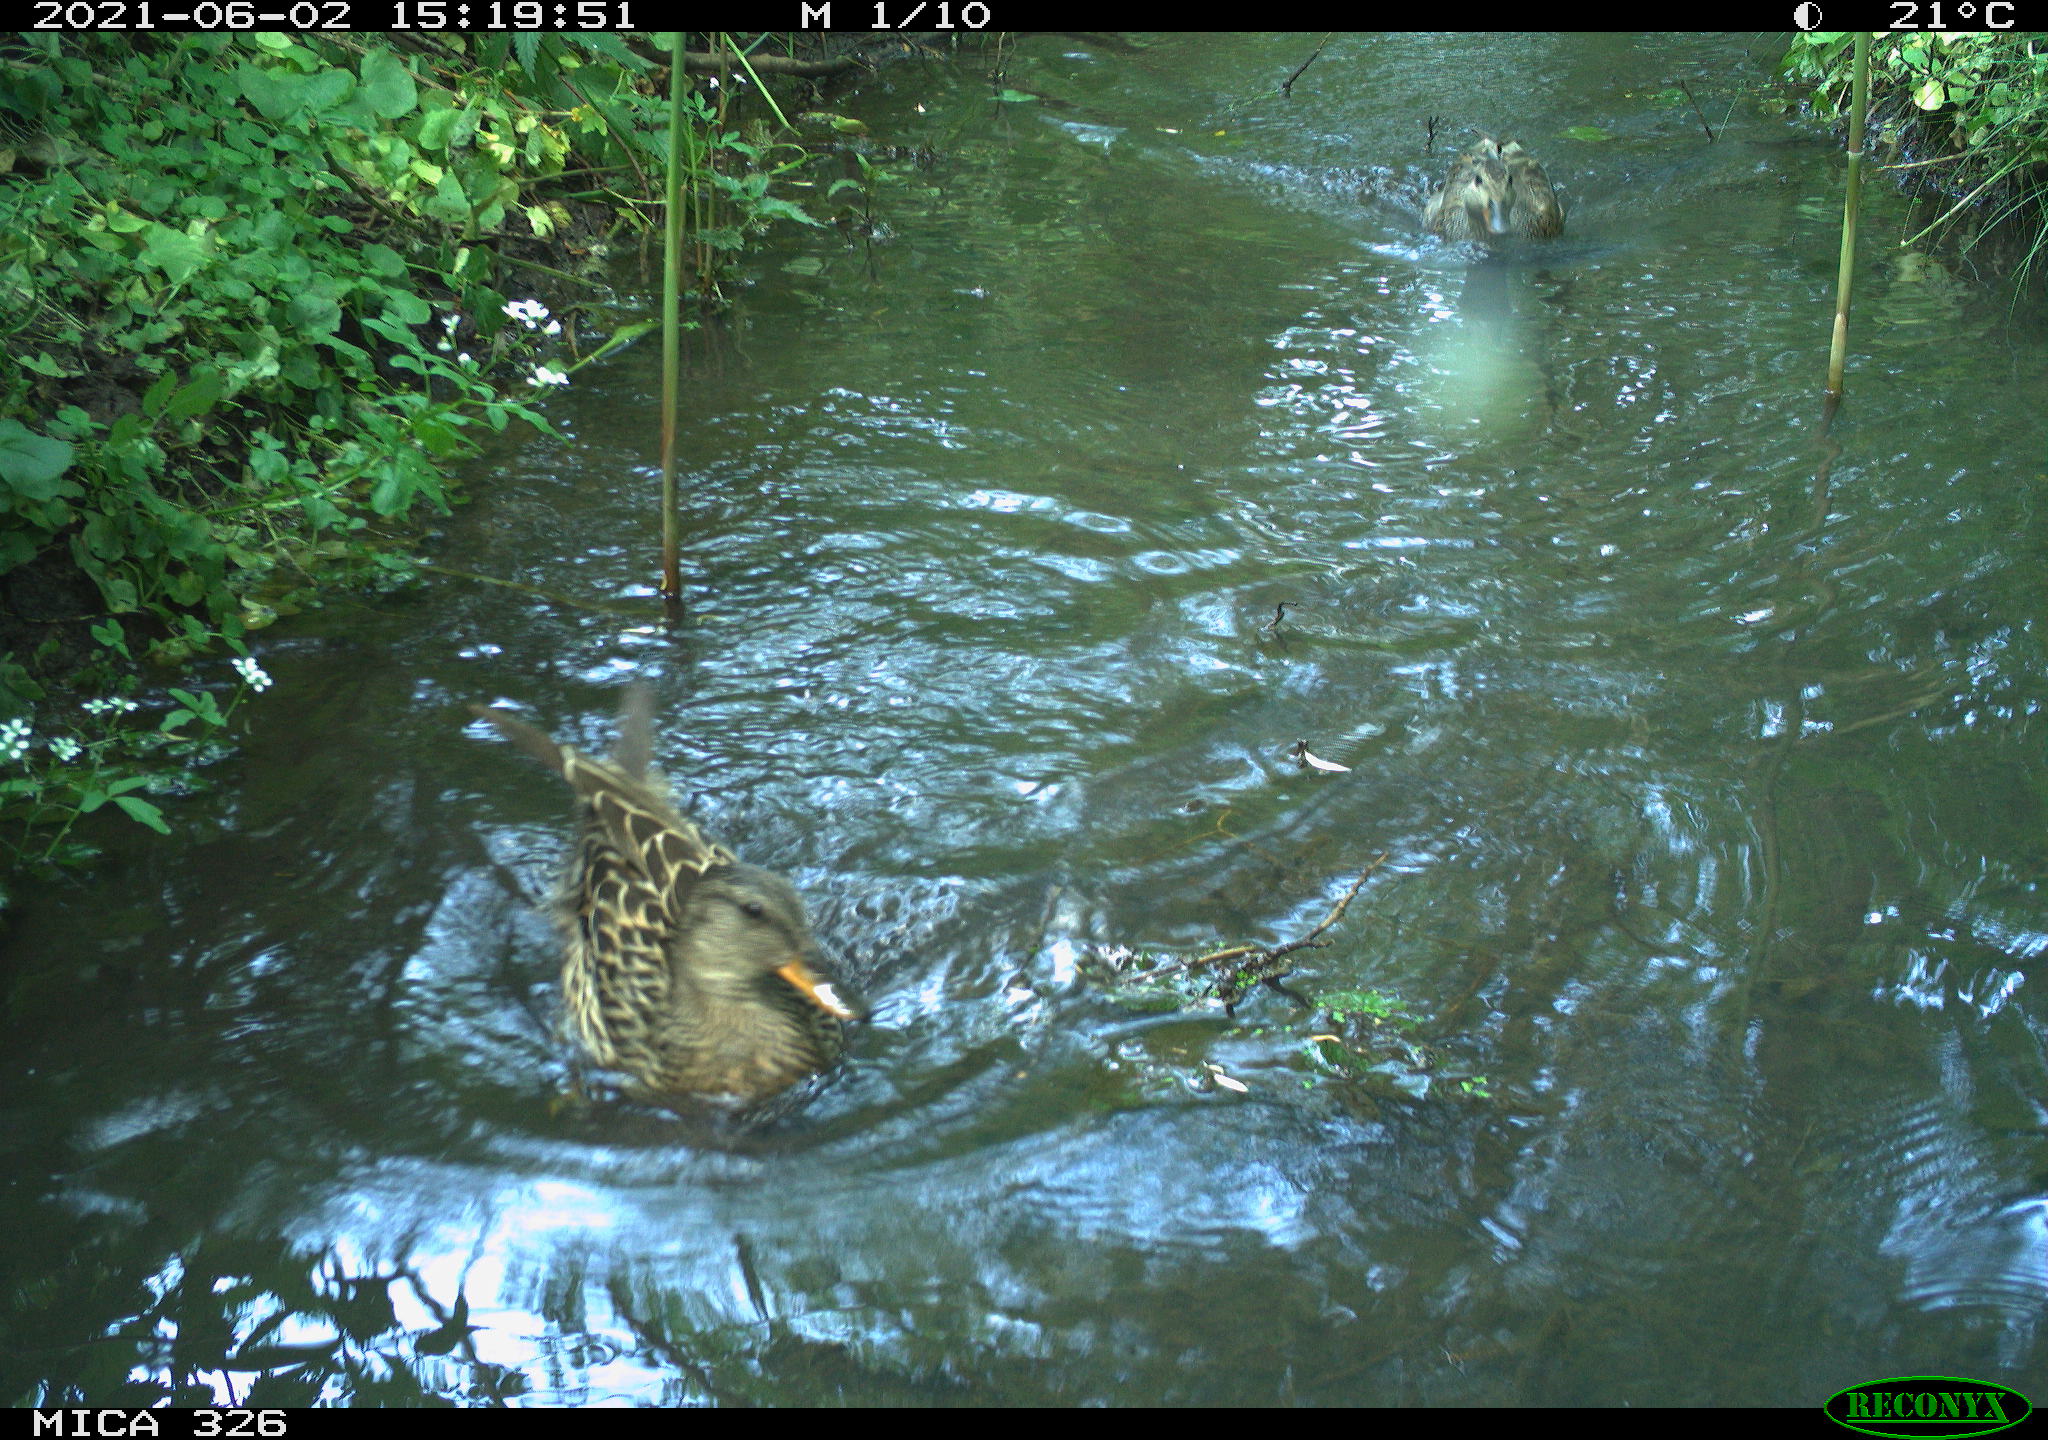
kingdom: Animalia
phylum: Chordata
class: Aves
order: Anseriformes
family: Anatidae
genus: Anas
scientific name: Anas platyrhynchos
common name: Mallard
